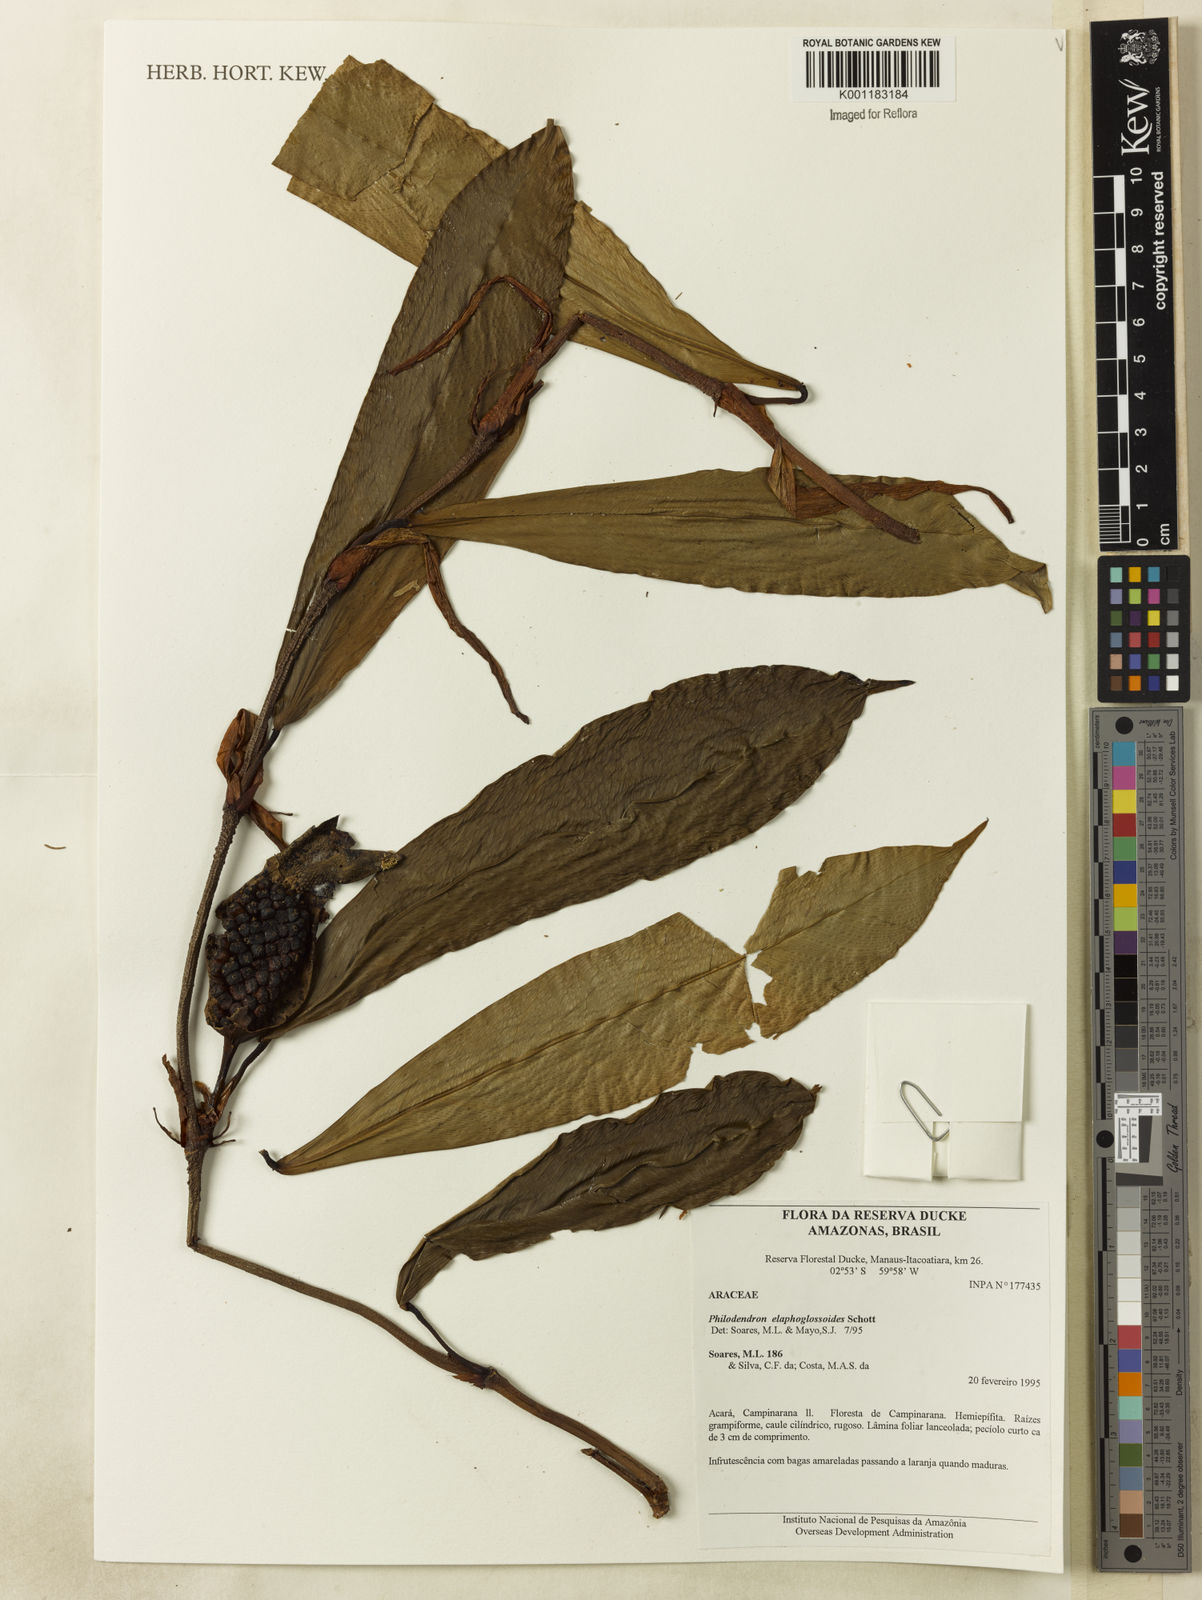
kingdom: Plantae
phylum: Tracheophyta
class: Liliopsida
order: Alismatales
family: Araceae
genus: Philodendron
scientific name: Philodendron elaphoglossoides
